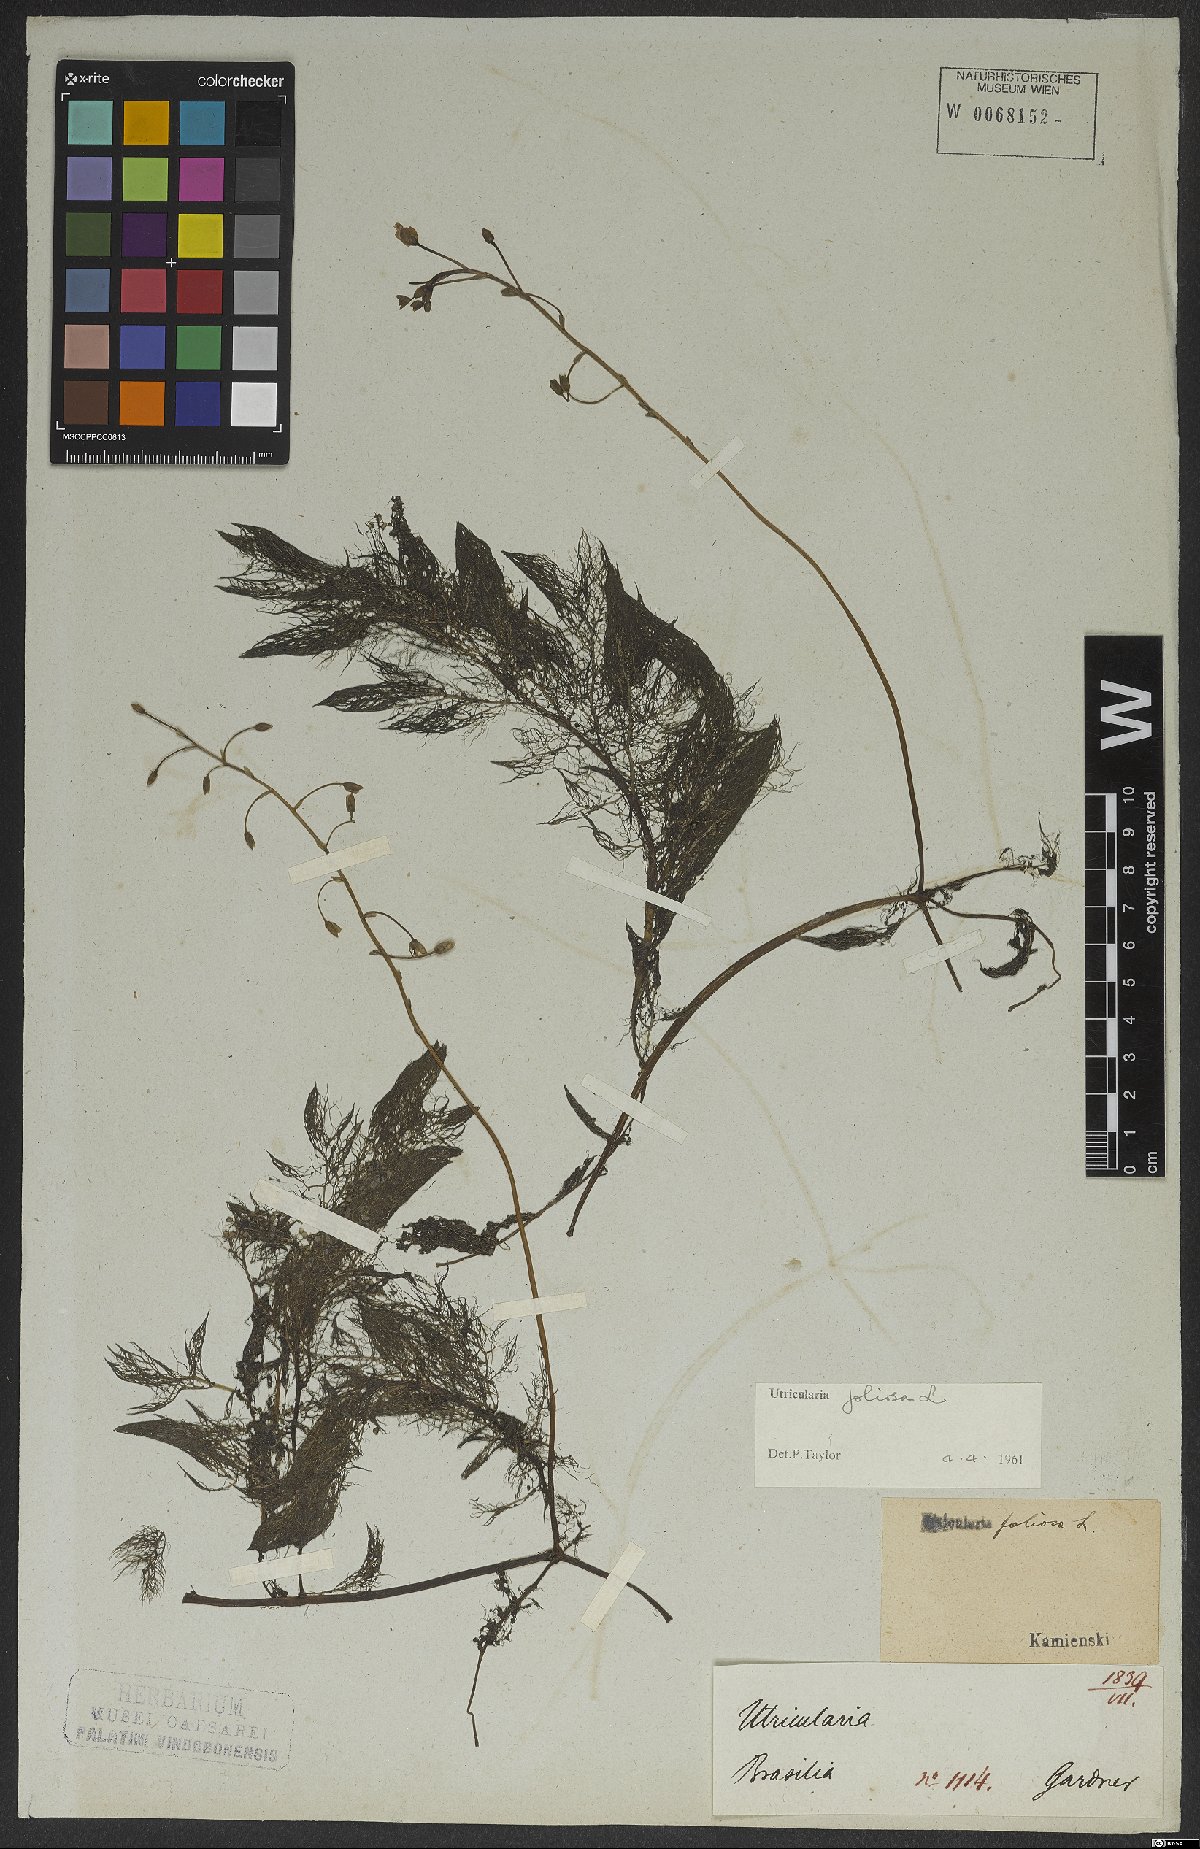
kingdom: Plantae
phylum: Tracheophyta
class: Magnoliopsida
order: Lamiales
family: Lentibulariaceae
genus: Utricularia
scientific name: Utricularia foliosa
